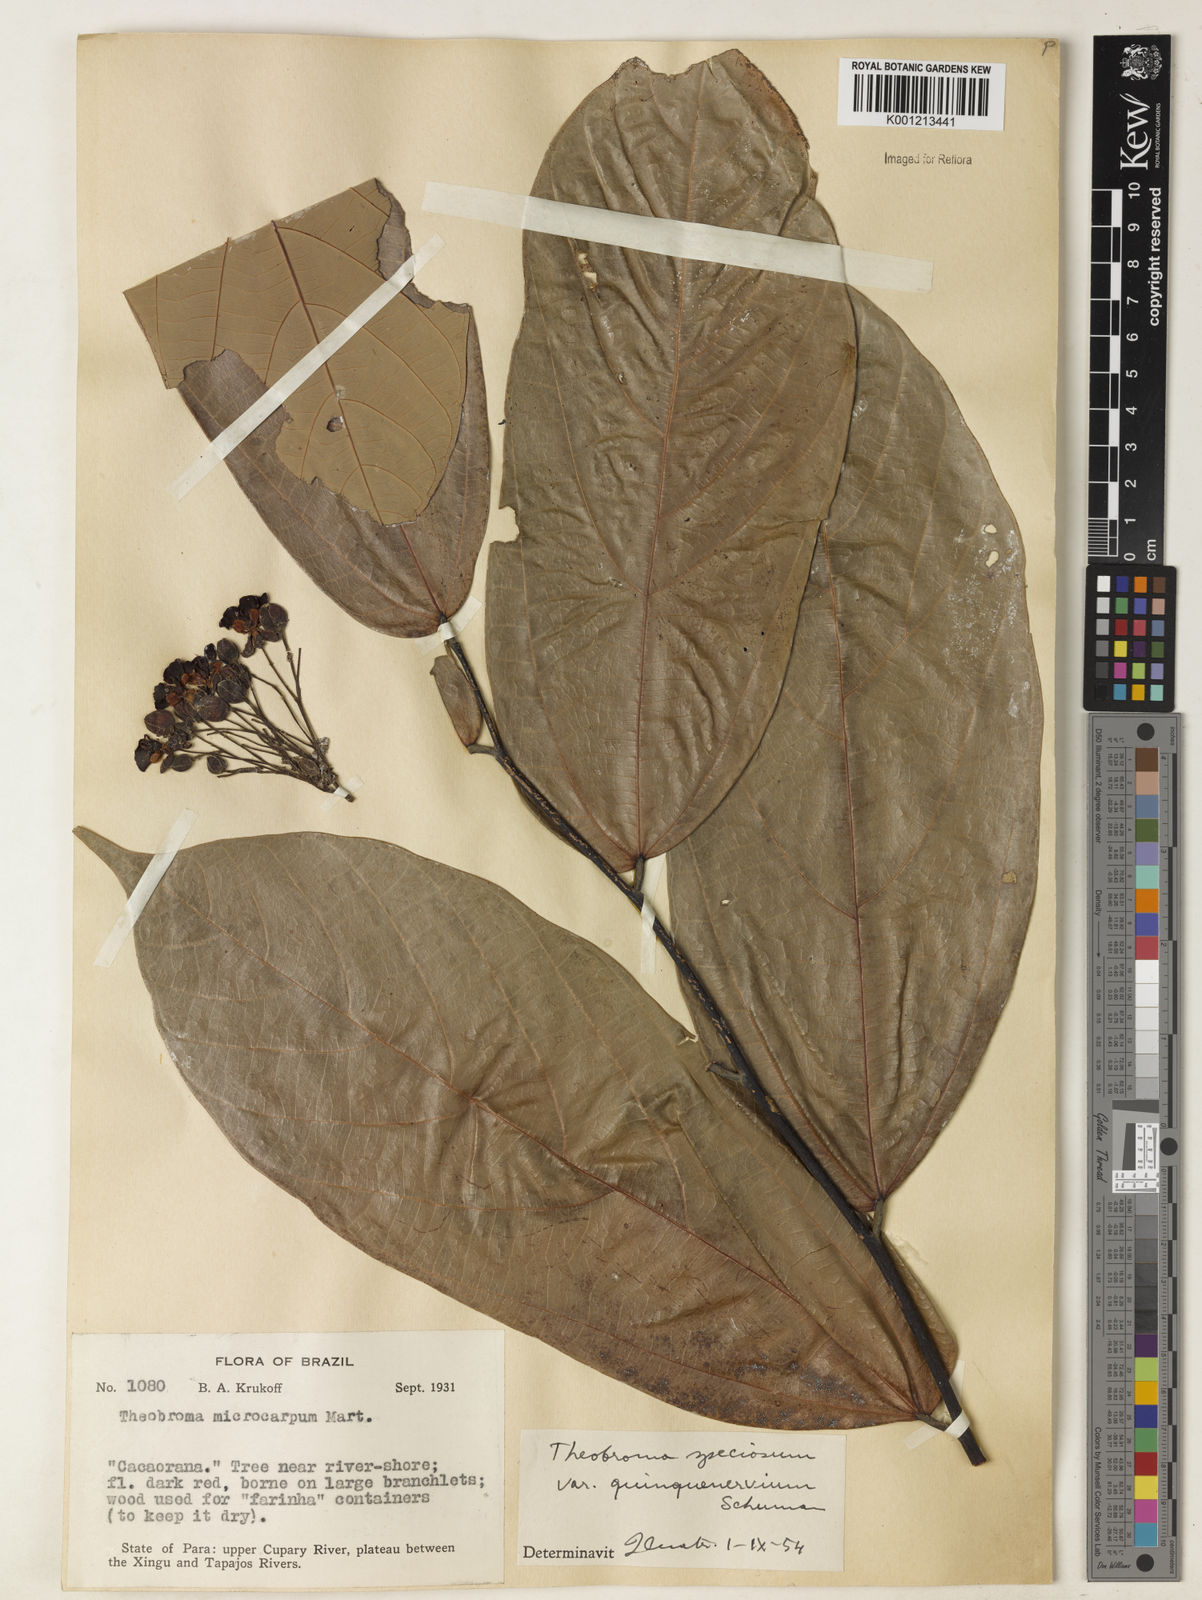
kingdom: Plantae
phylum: Tracheophyta
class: Magnoliopsida
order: Malvales
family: Malvaceae
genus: Theobroma
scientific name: Theobroma speciosum
